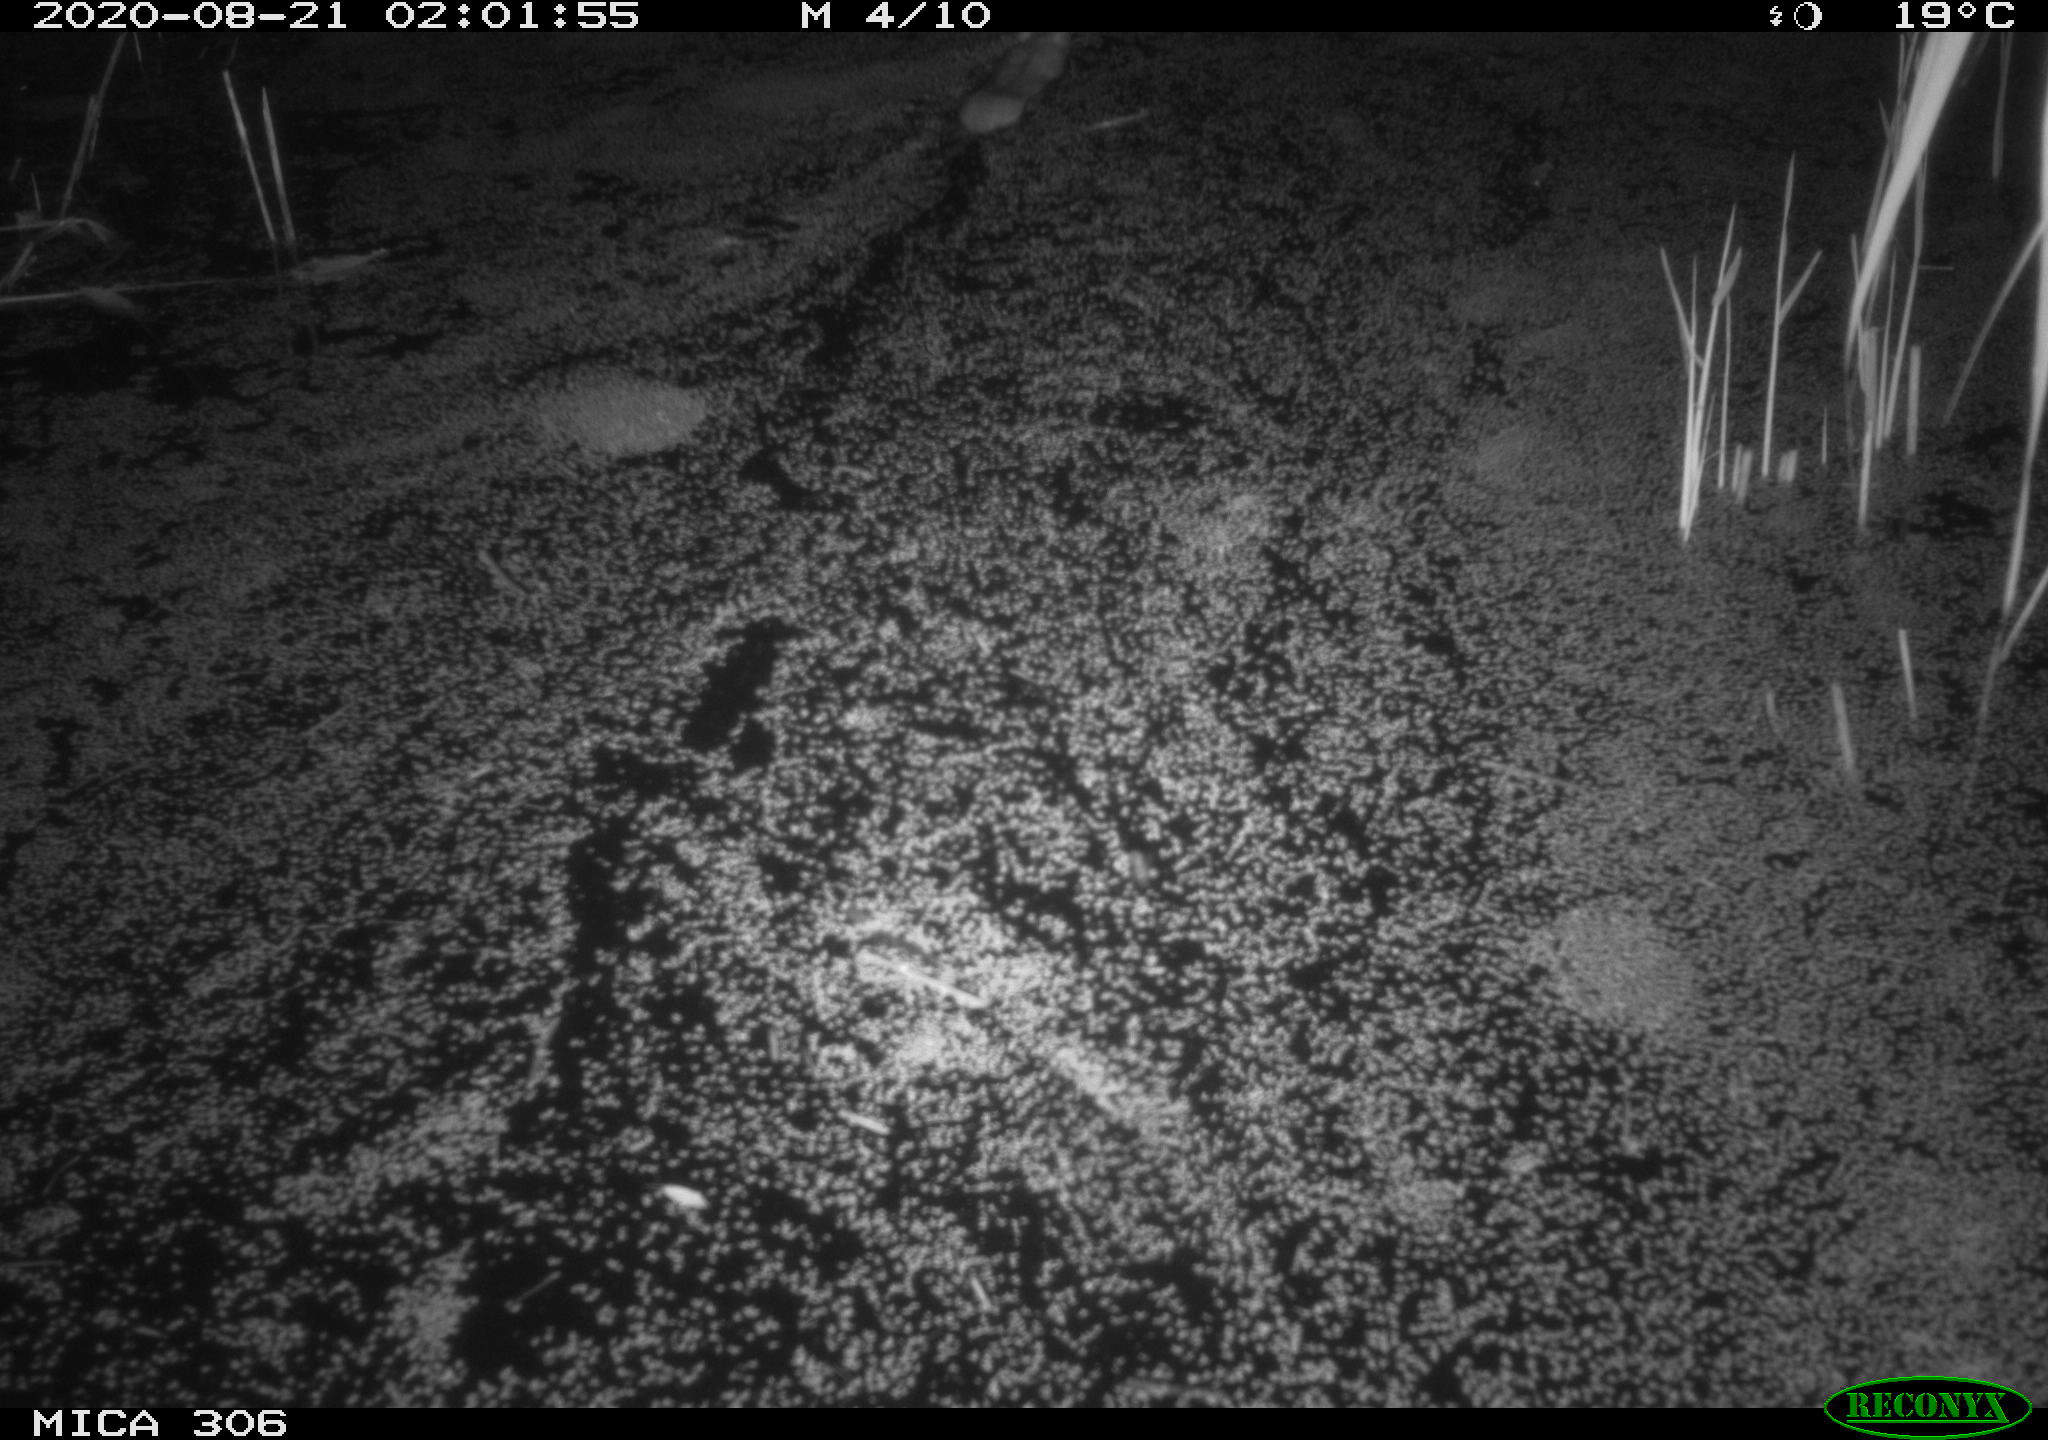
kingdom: Animalia
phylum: Chordata
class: Mammalia
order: Rodentia
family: Muridae
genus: Rattus
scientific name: Rattus norvegicus
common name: Brown rat
